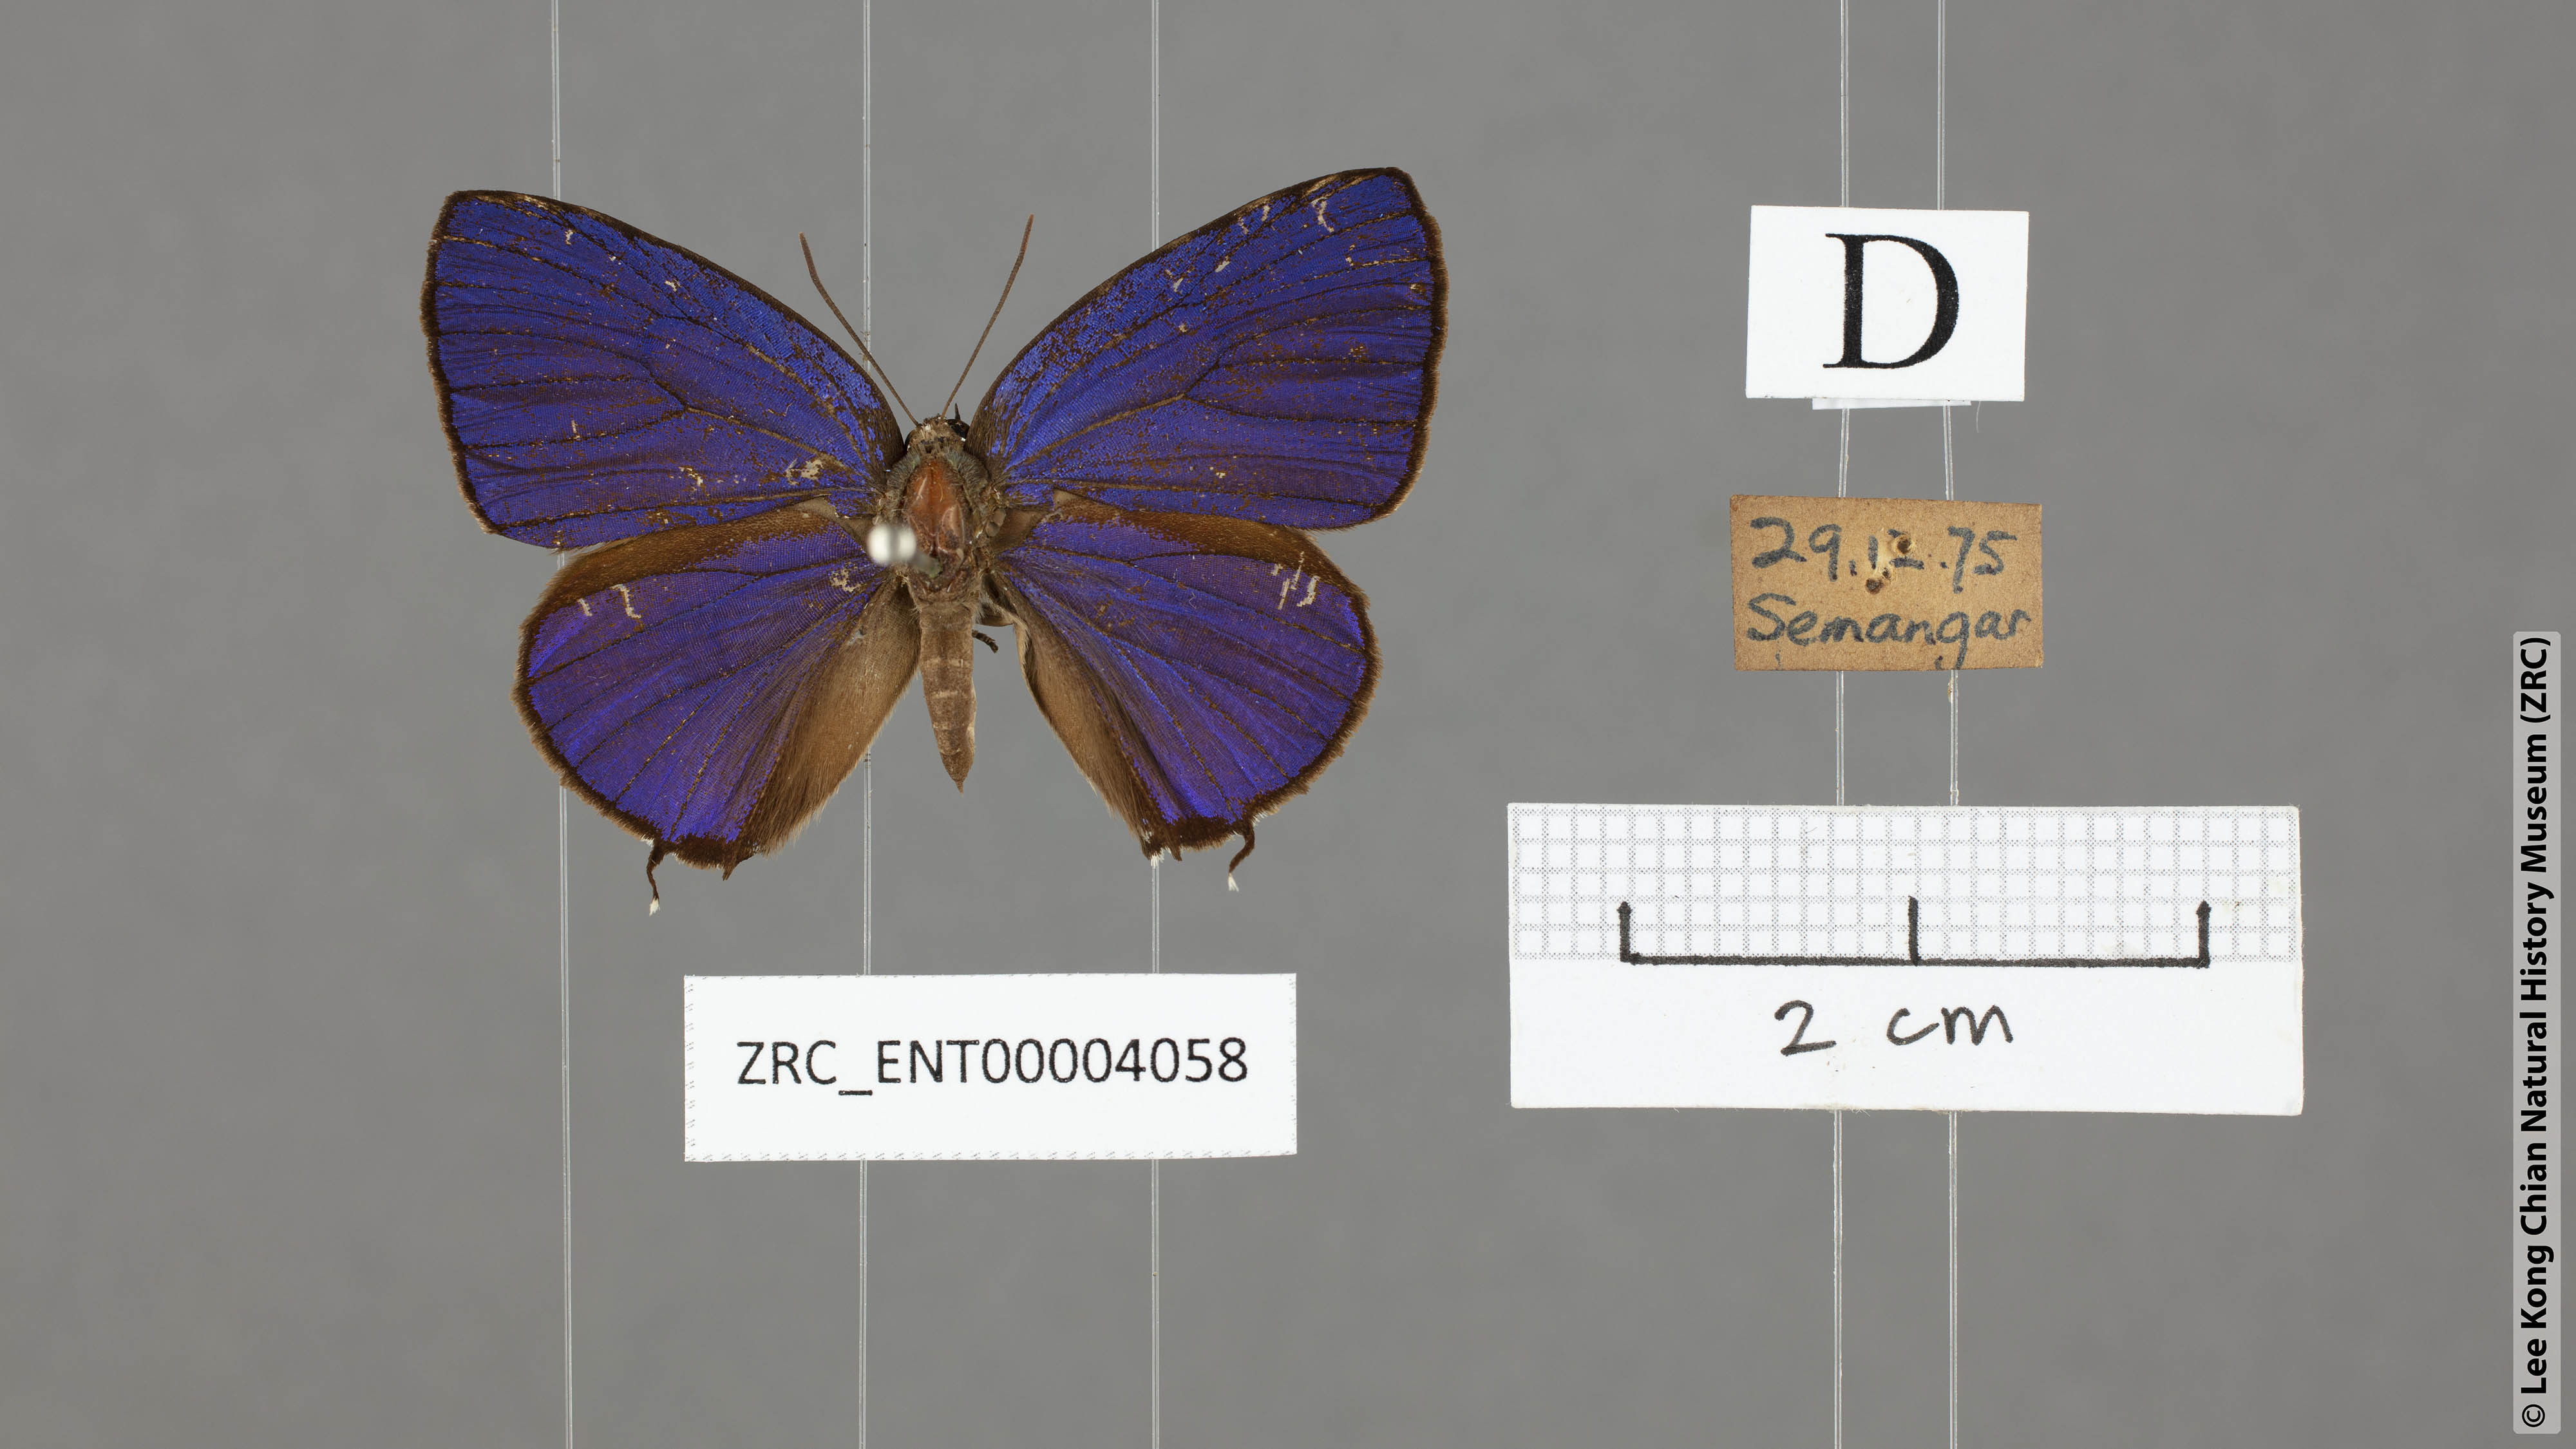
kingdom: Animalia
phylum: Arthropoda
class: Insecta
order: Lepidoptera
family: Lycaenidae
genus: Arhopala
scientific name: Arhopala sublustris
